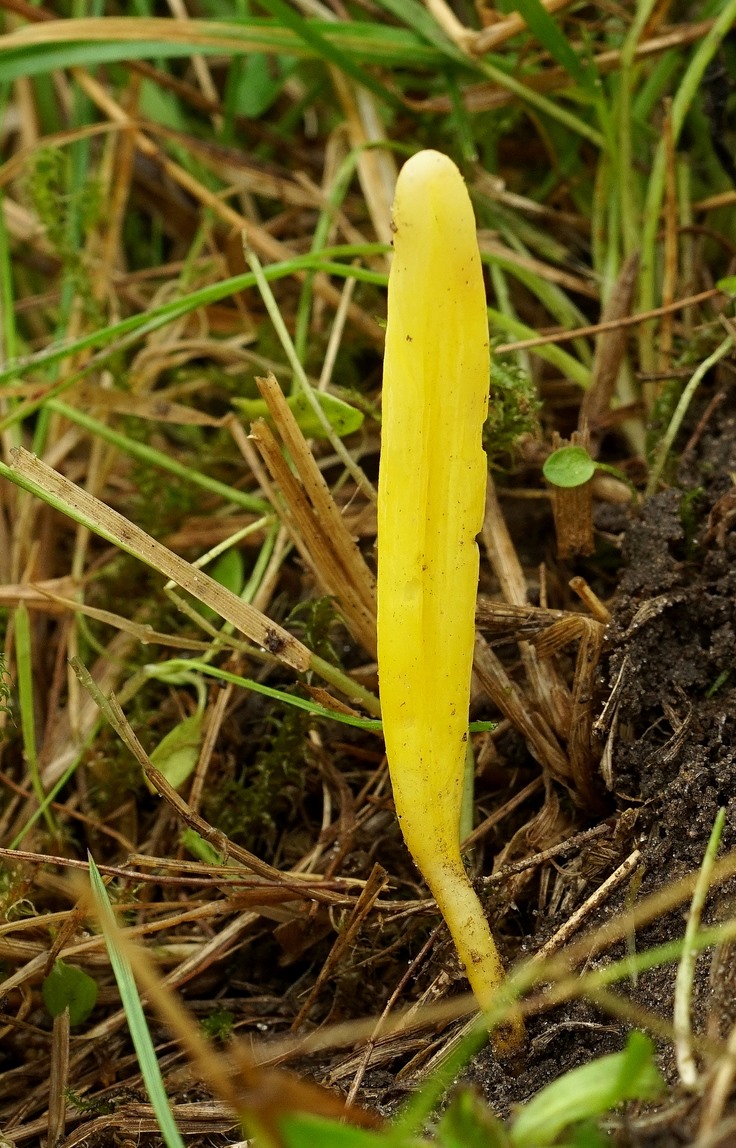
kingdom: Fungi
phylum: Basidiomycota
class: Agaricomycetes
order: Agaricales
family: Clavariaceae
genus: Clavulinopsis
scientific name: Clavulinopsis helvola
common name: orangegul køllesvamp
